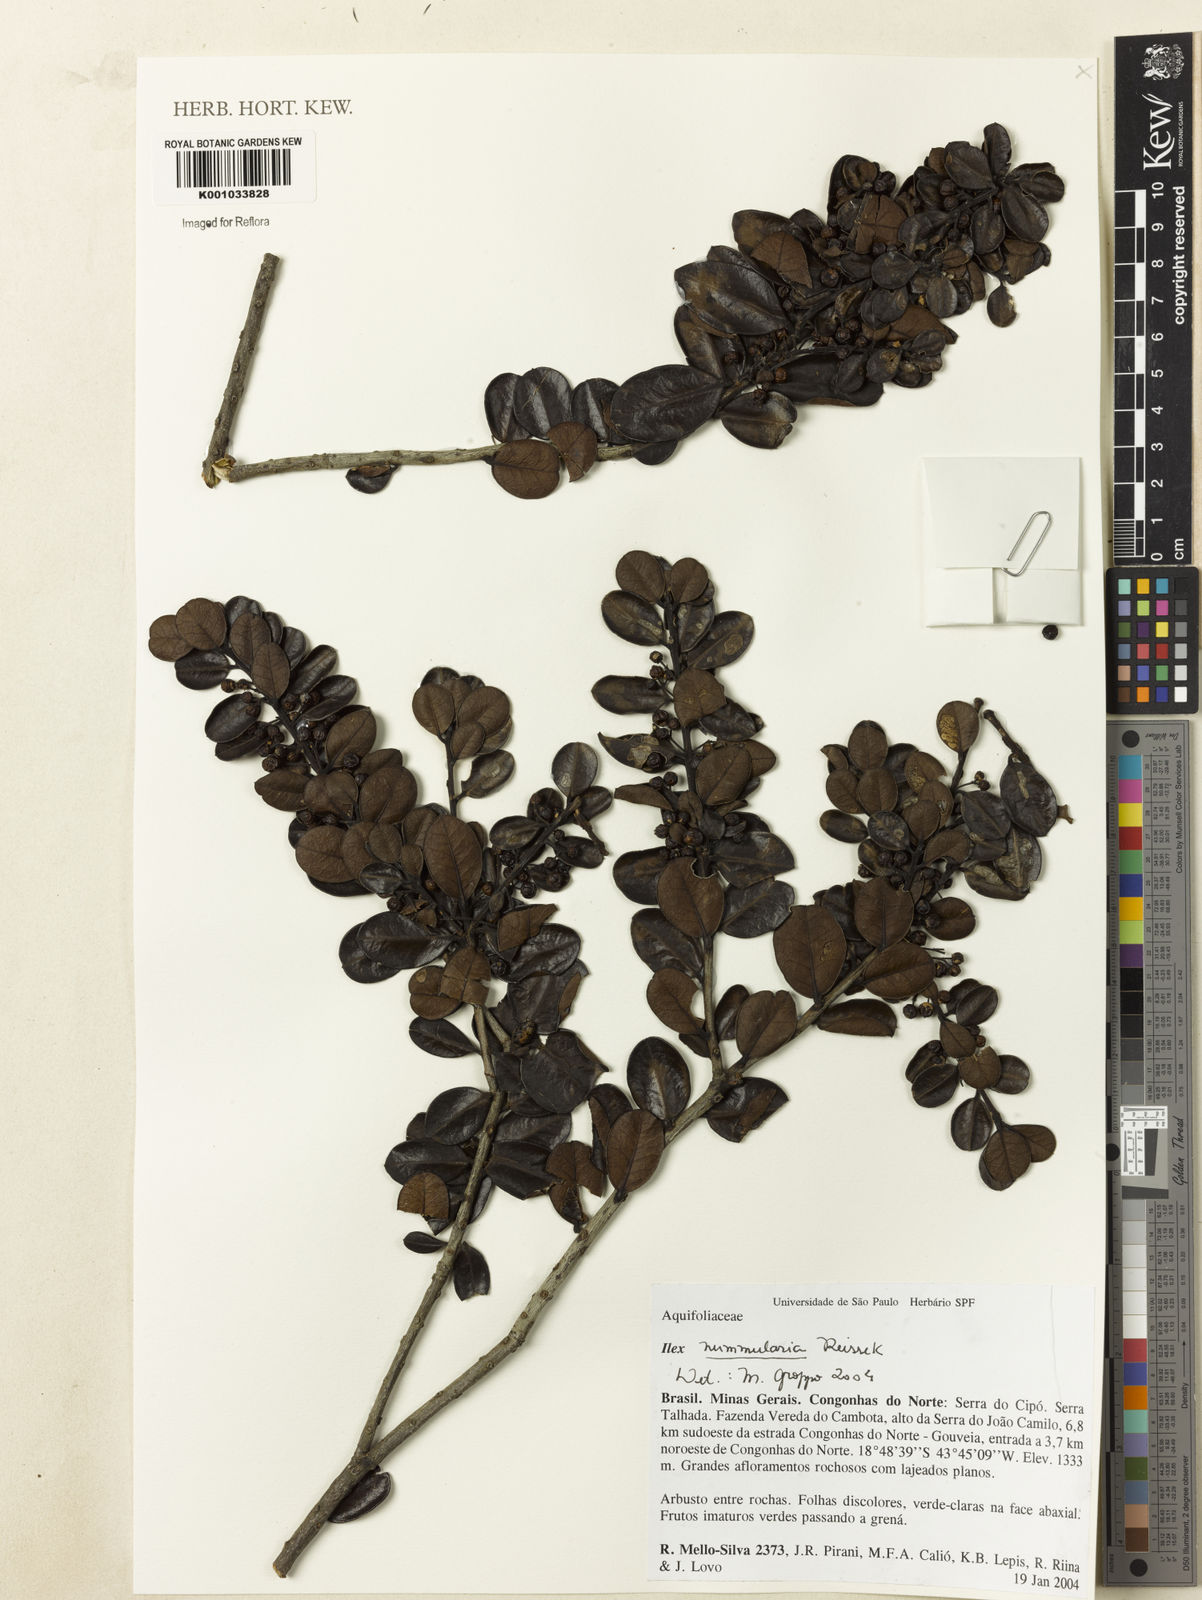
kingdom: Plantae
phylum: Tracheophyta
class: Magnoliopsida
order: Aquifoliales
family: Aquifoliaceae
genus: Ilex
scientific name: Ilex nummularia
